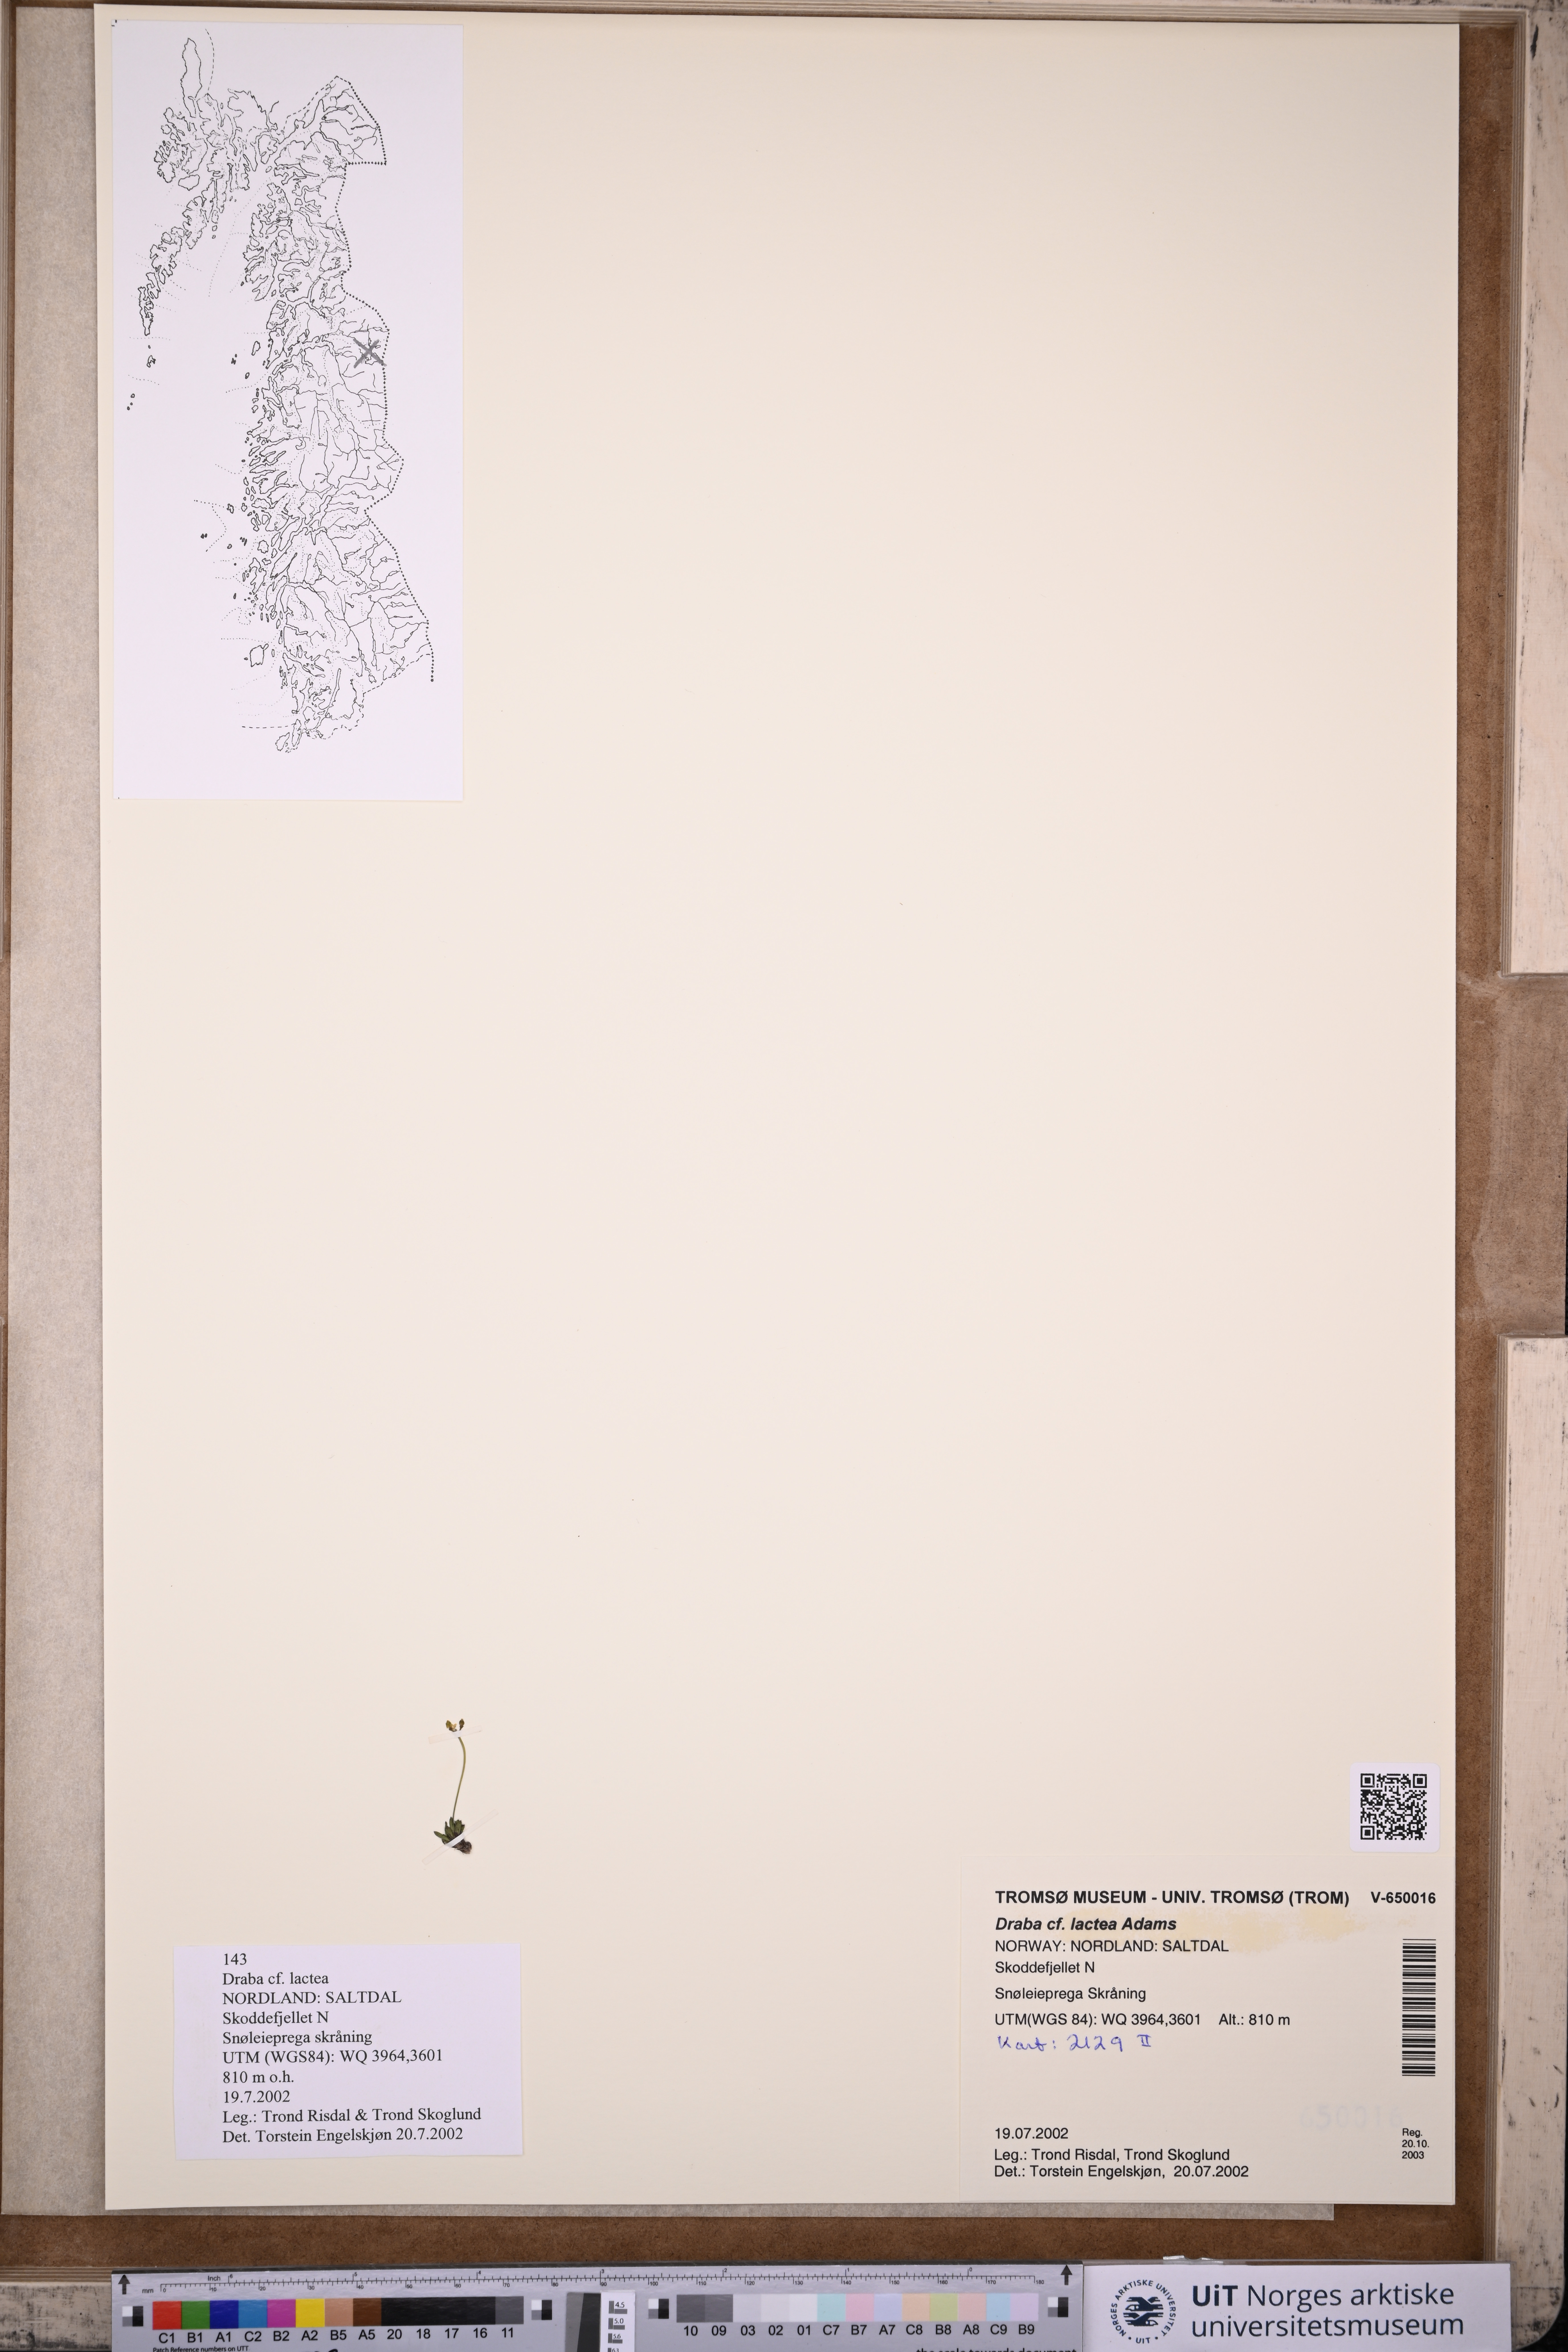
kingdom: Plantae
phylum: Tracheophyta
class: Magnoliopsida
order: Brassicales
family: Brassicaceae
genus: Draba
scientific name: Draba lactea
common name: Milky draba
